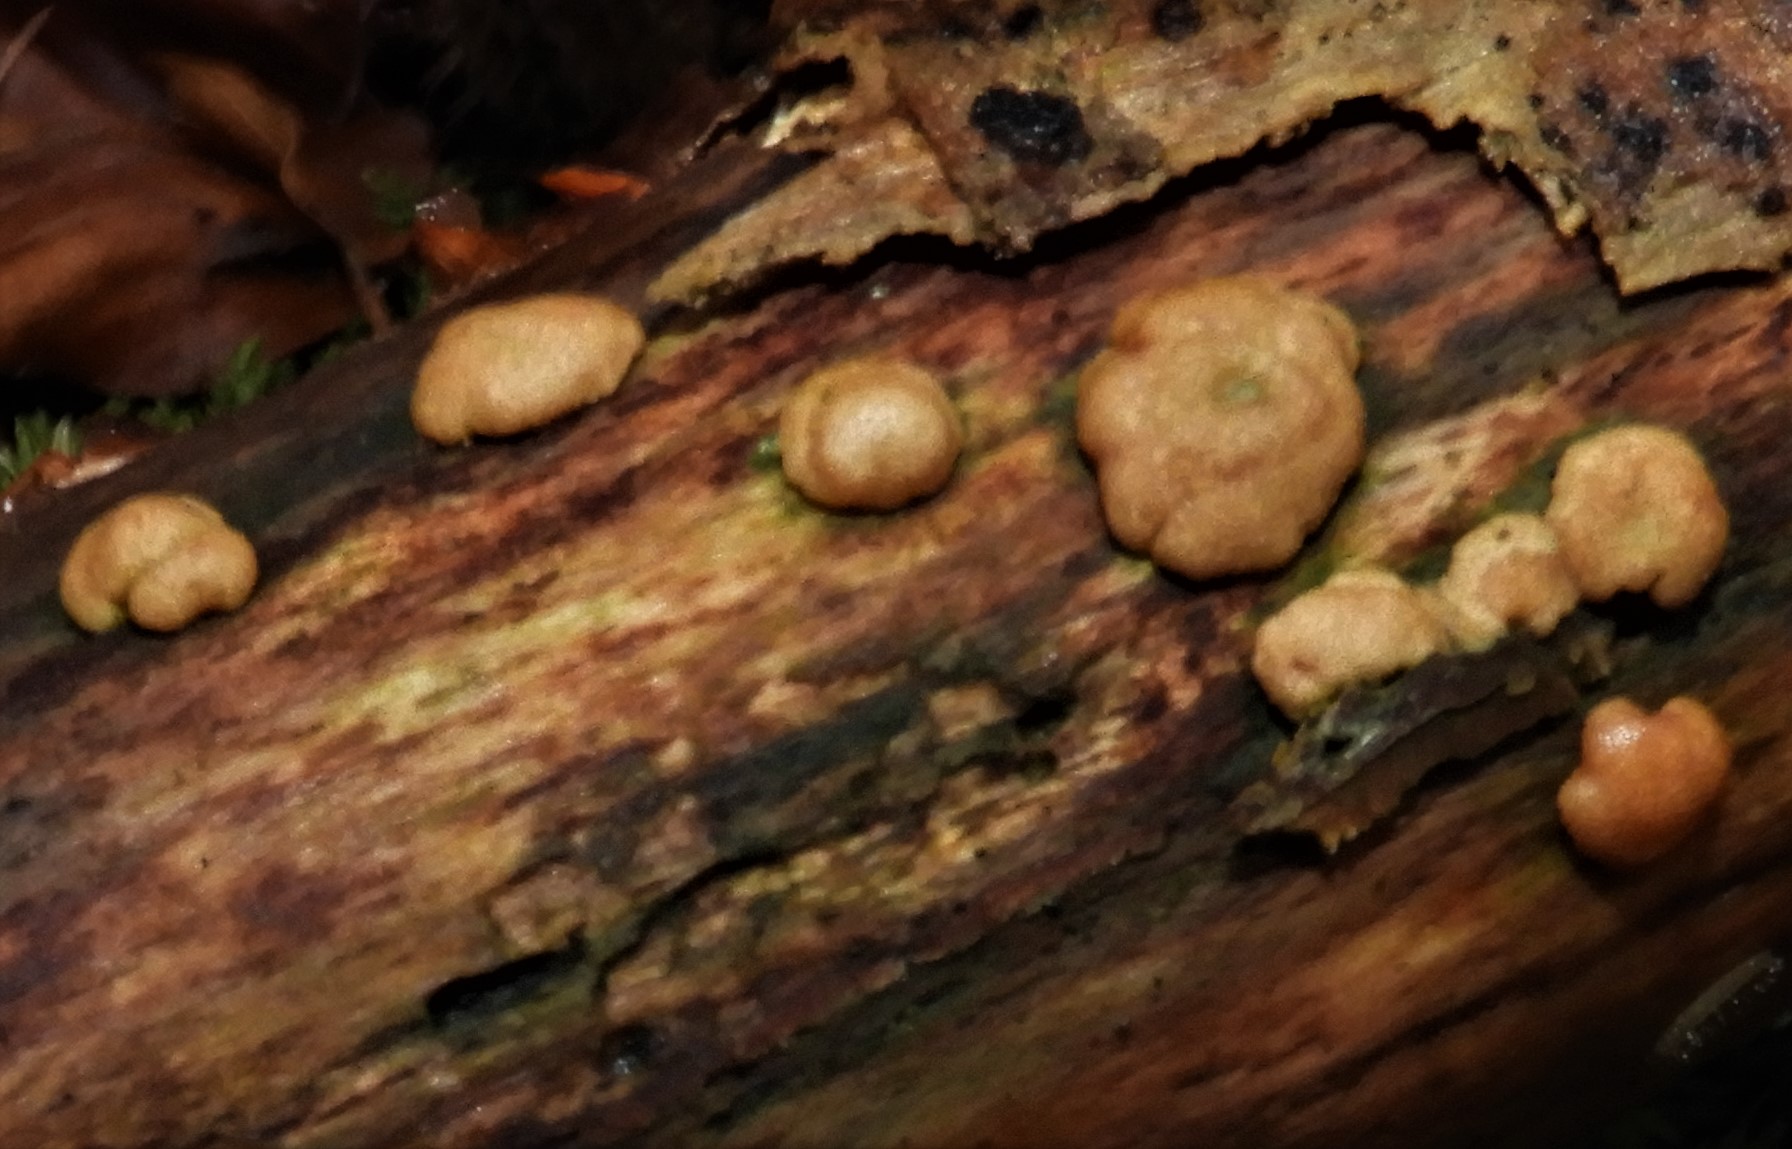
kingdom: Fungi
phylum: Ascomycota
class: Sordariomycetes
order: Hypocreales
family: Hypocreaceae
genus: Trichoderma
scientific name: Trichoderma europaeum
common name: rosabrun kødkerne
